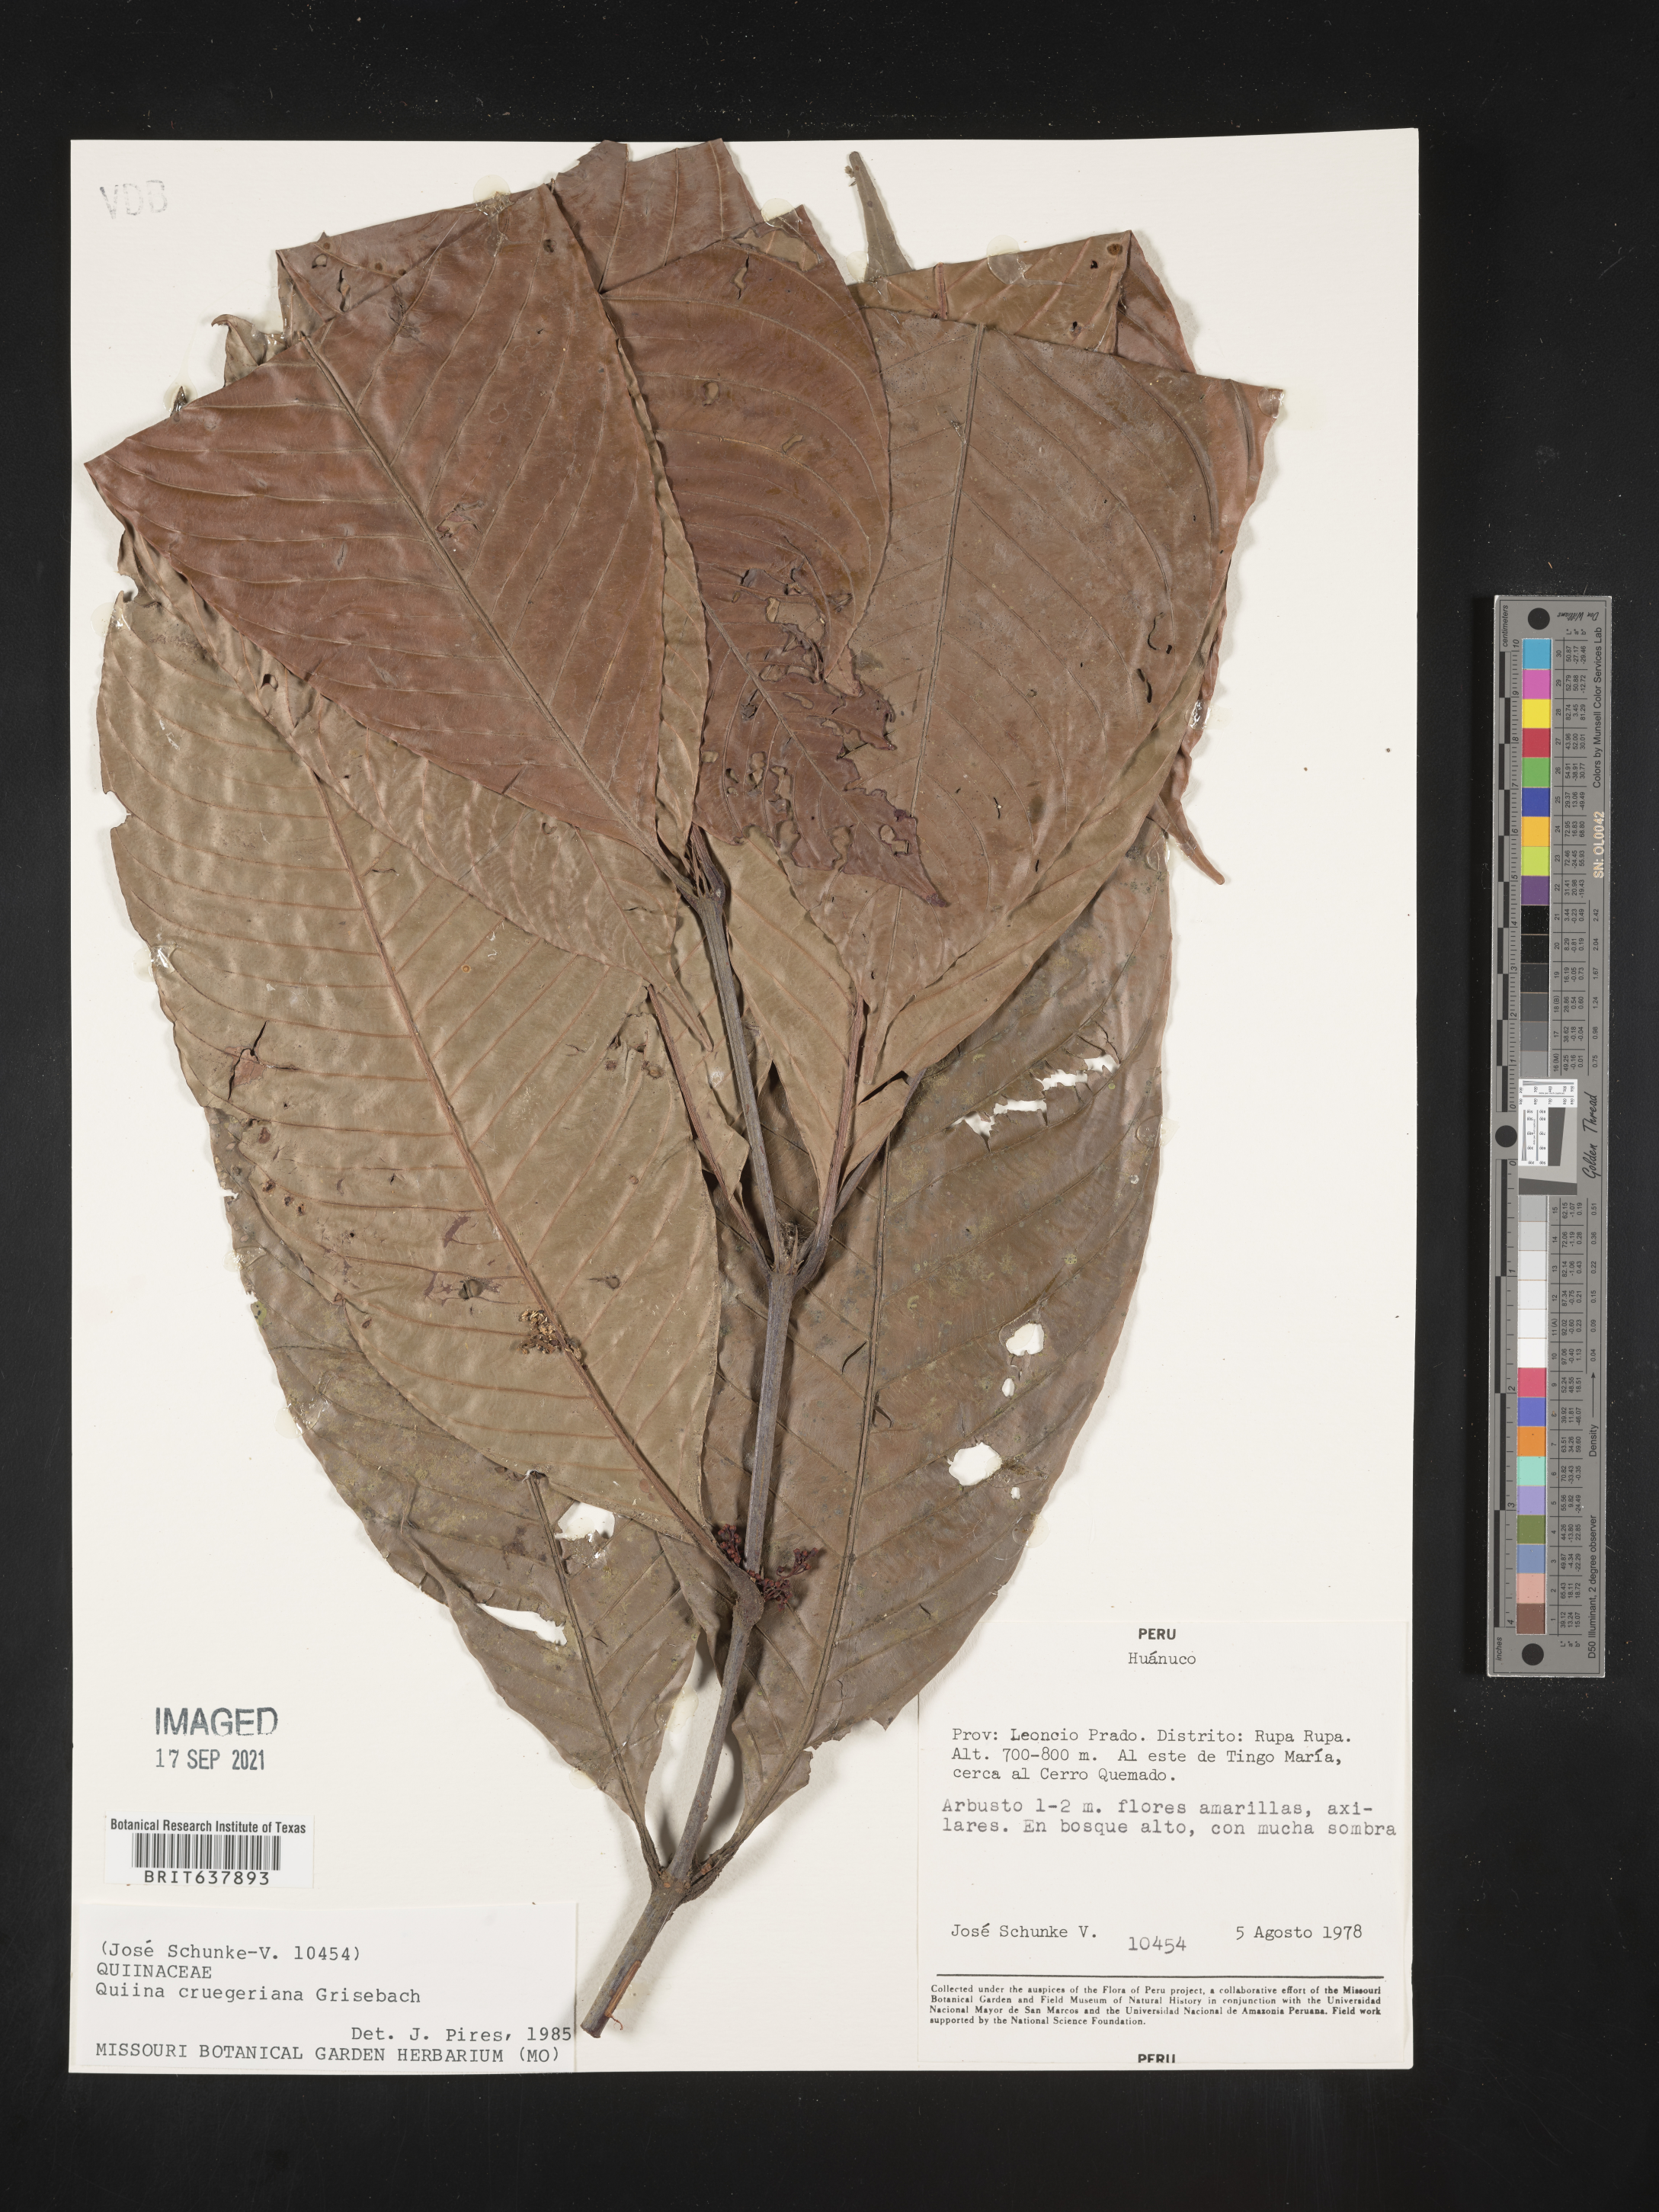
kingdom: Plantae
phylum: Tracheophyta
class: Magnoliopsida
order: Malpighiales
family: Quiinaceae
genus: Quiina
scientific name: Quiina
